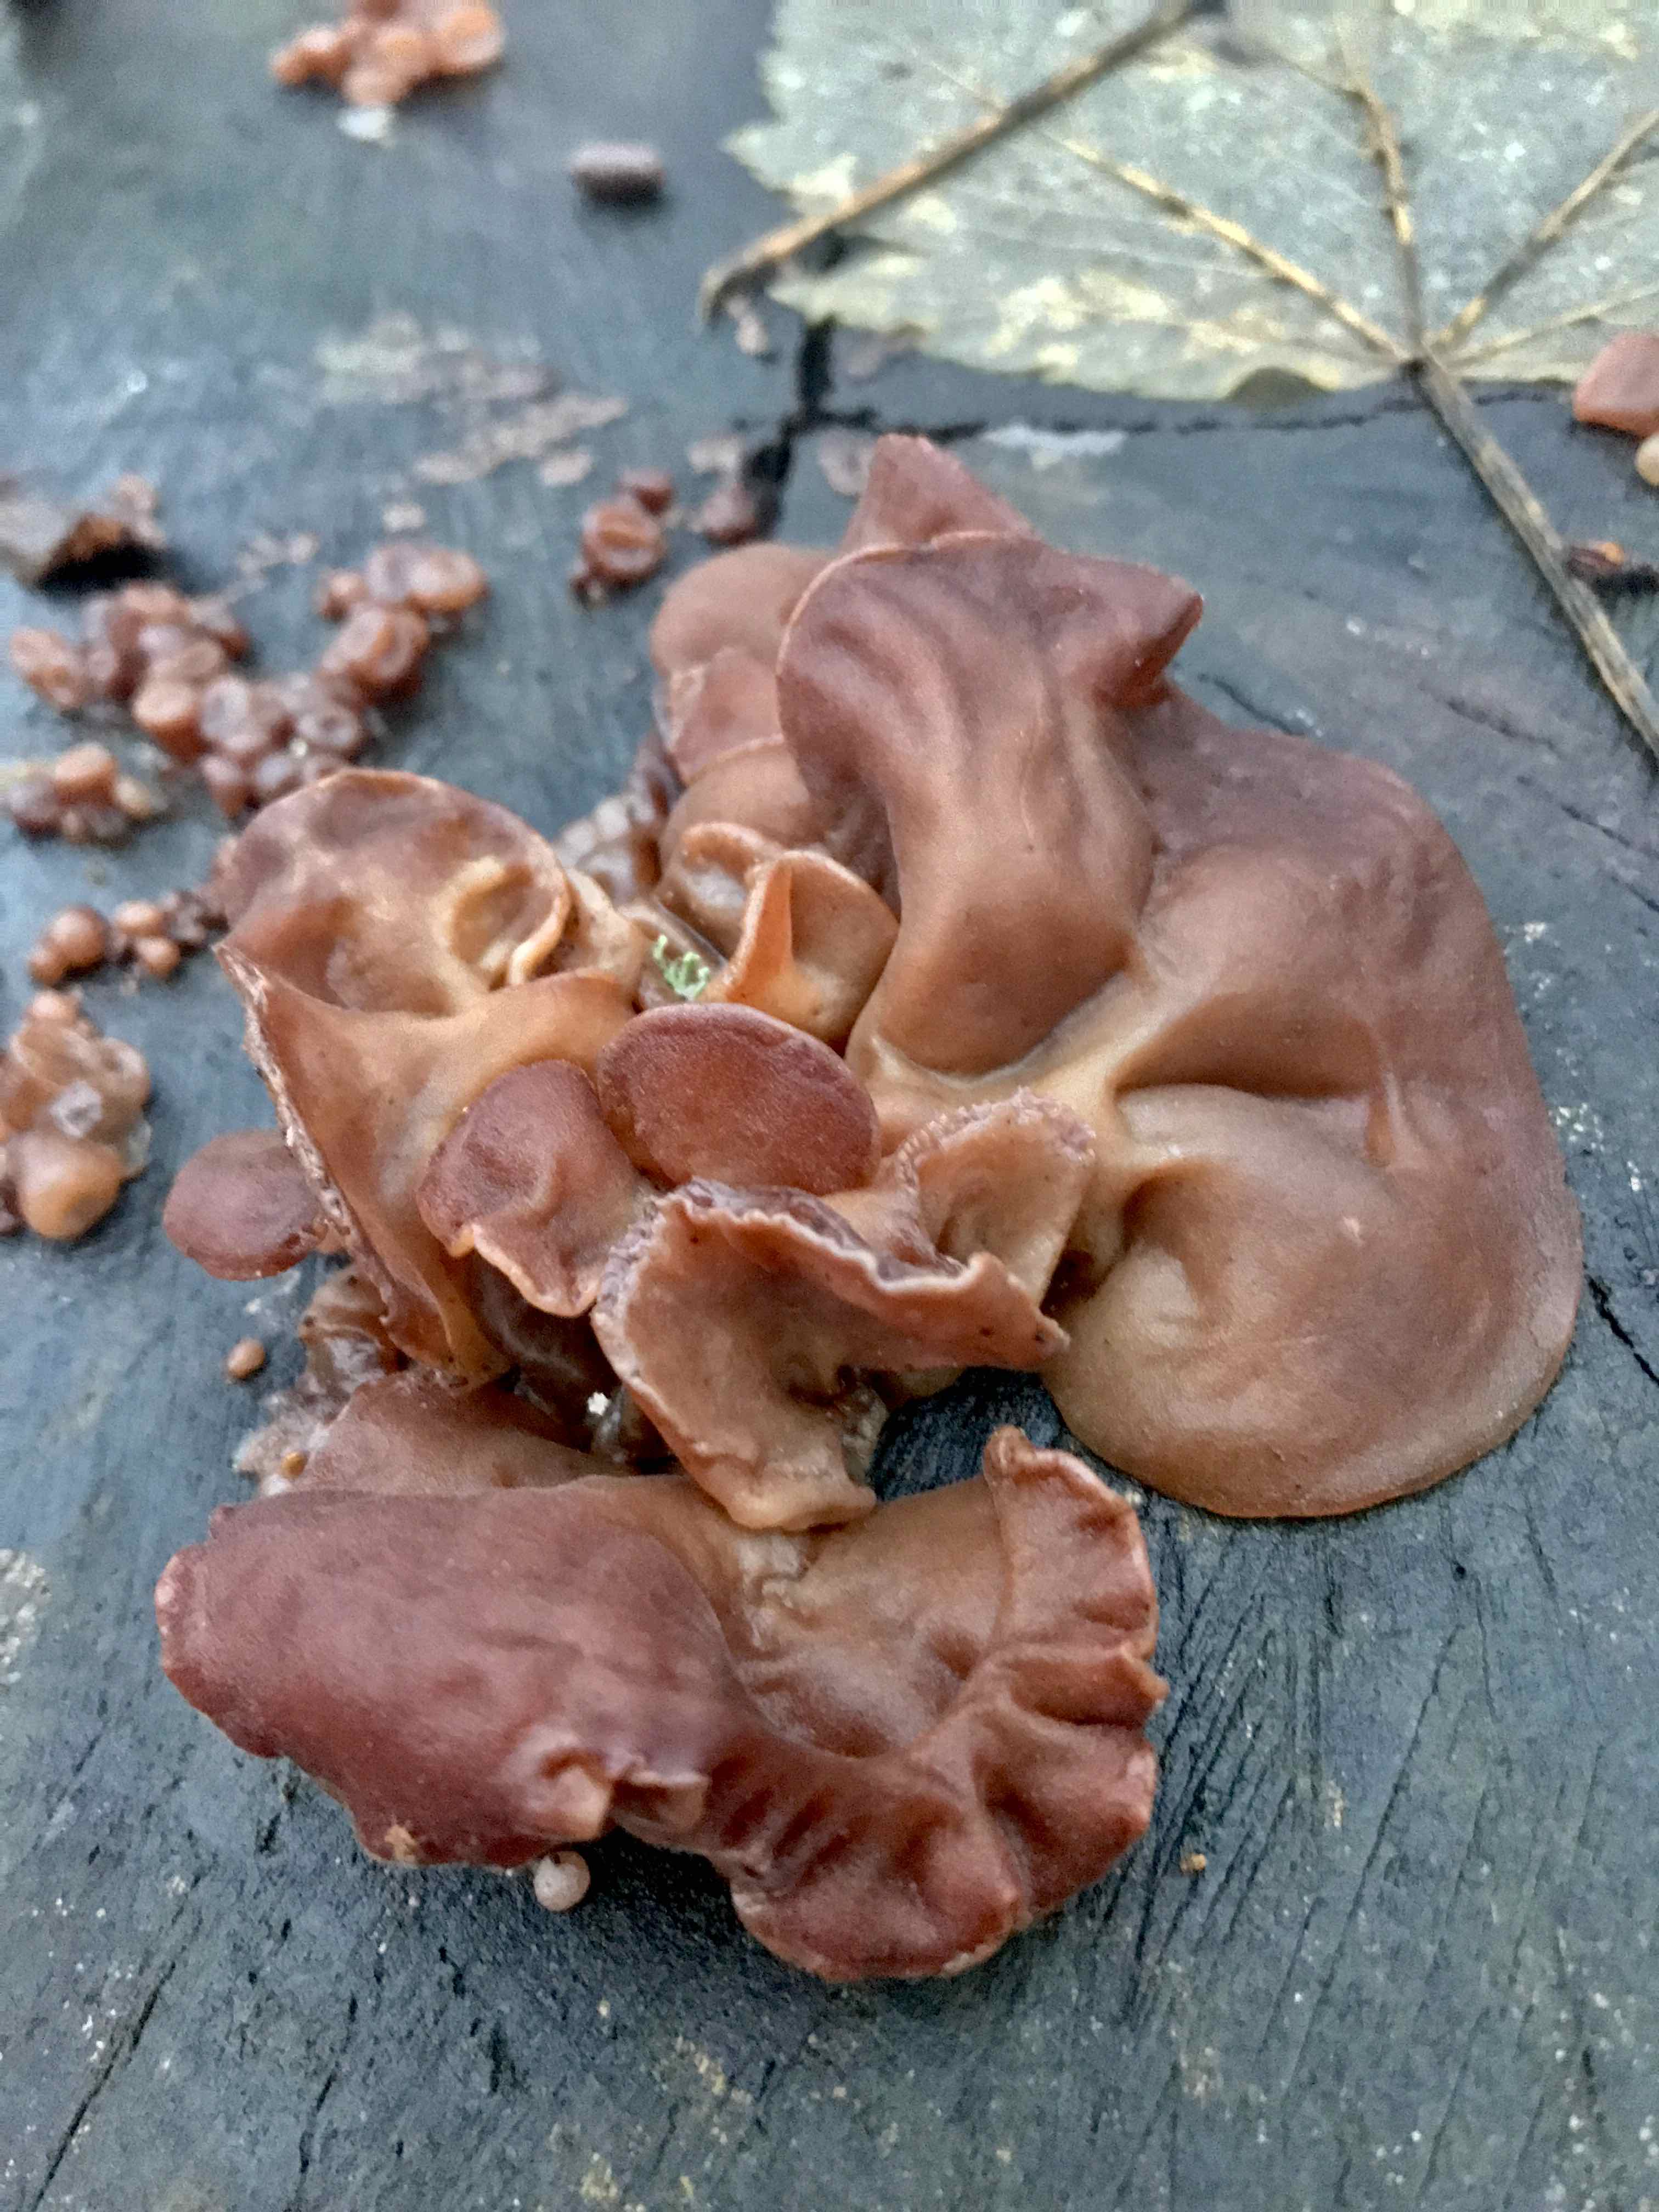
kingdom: Fungi
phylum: Basidiomycota
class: Agaricomycetes
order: Auriculariales
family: Auriculariaceae
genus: Auricularia
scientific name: Auricularia auricula-judae
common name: almindelig judasøre
